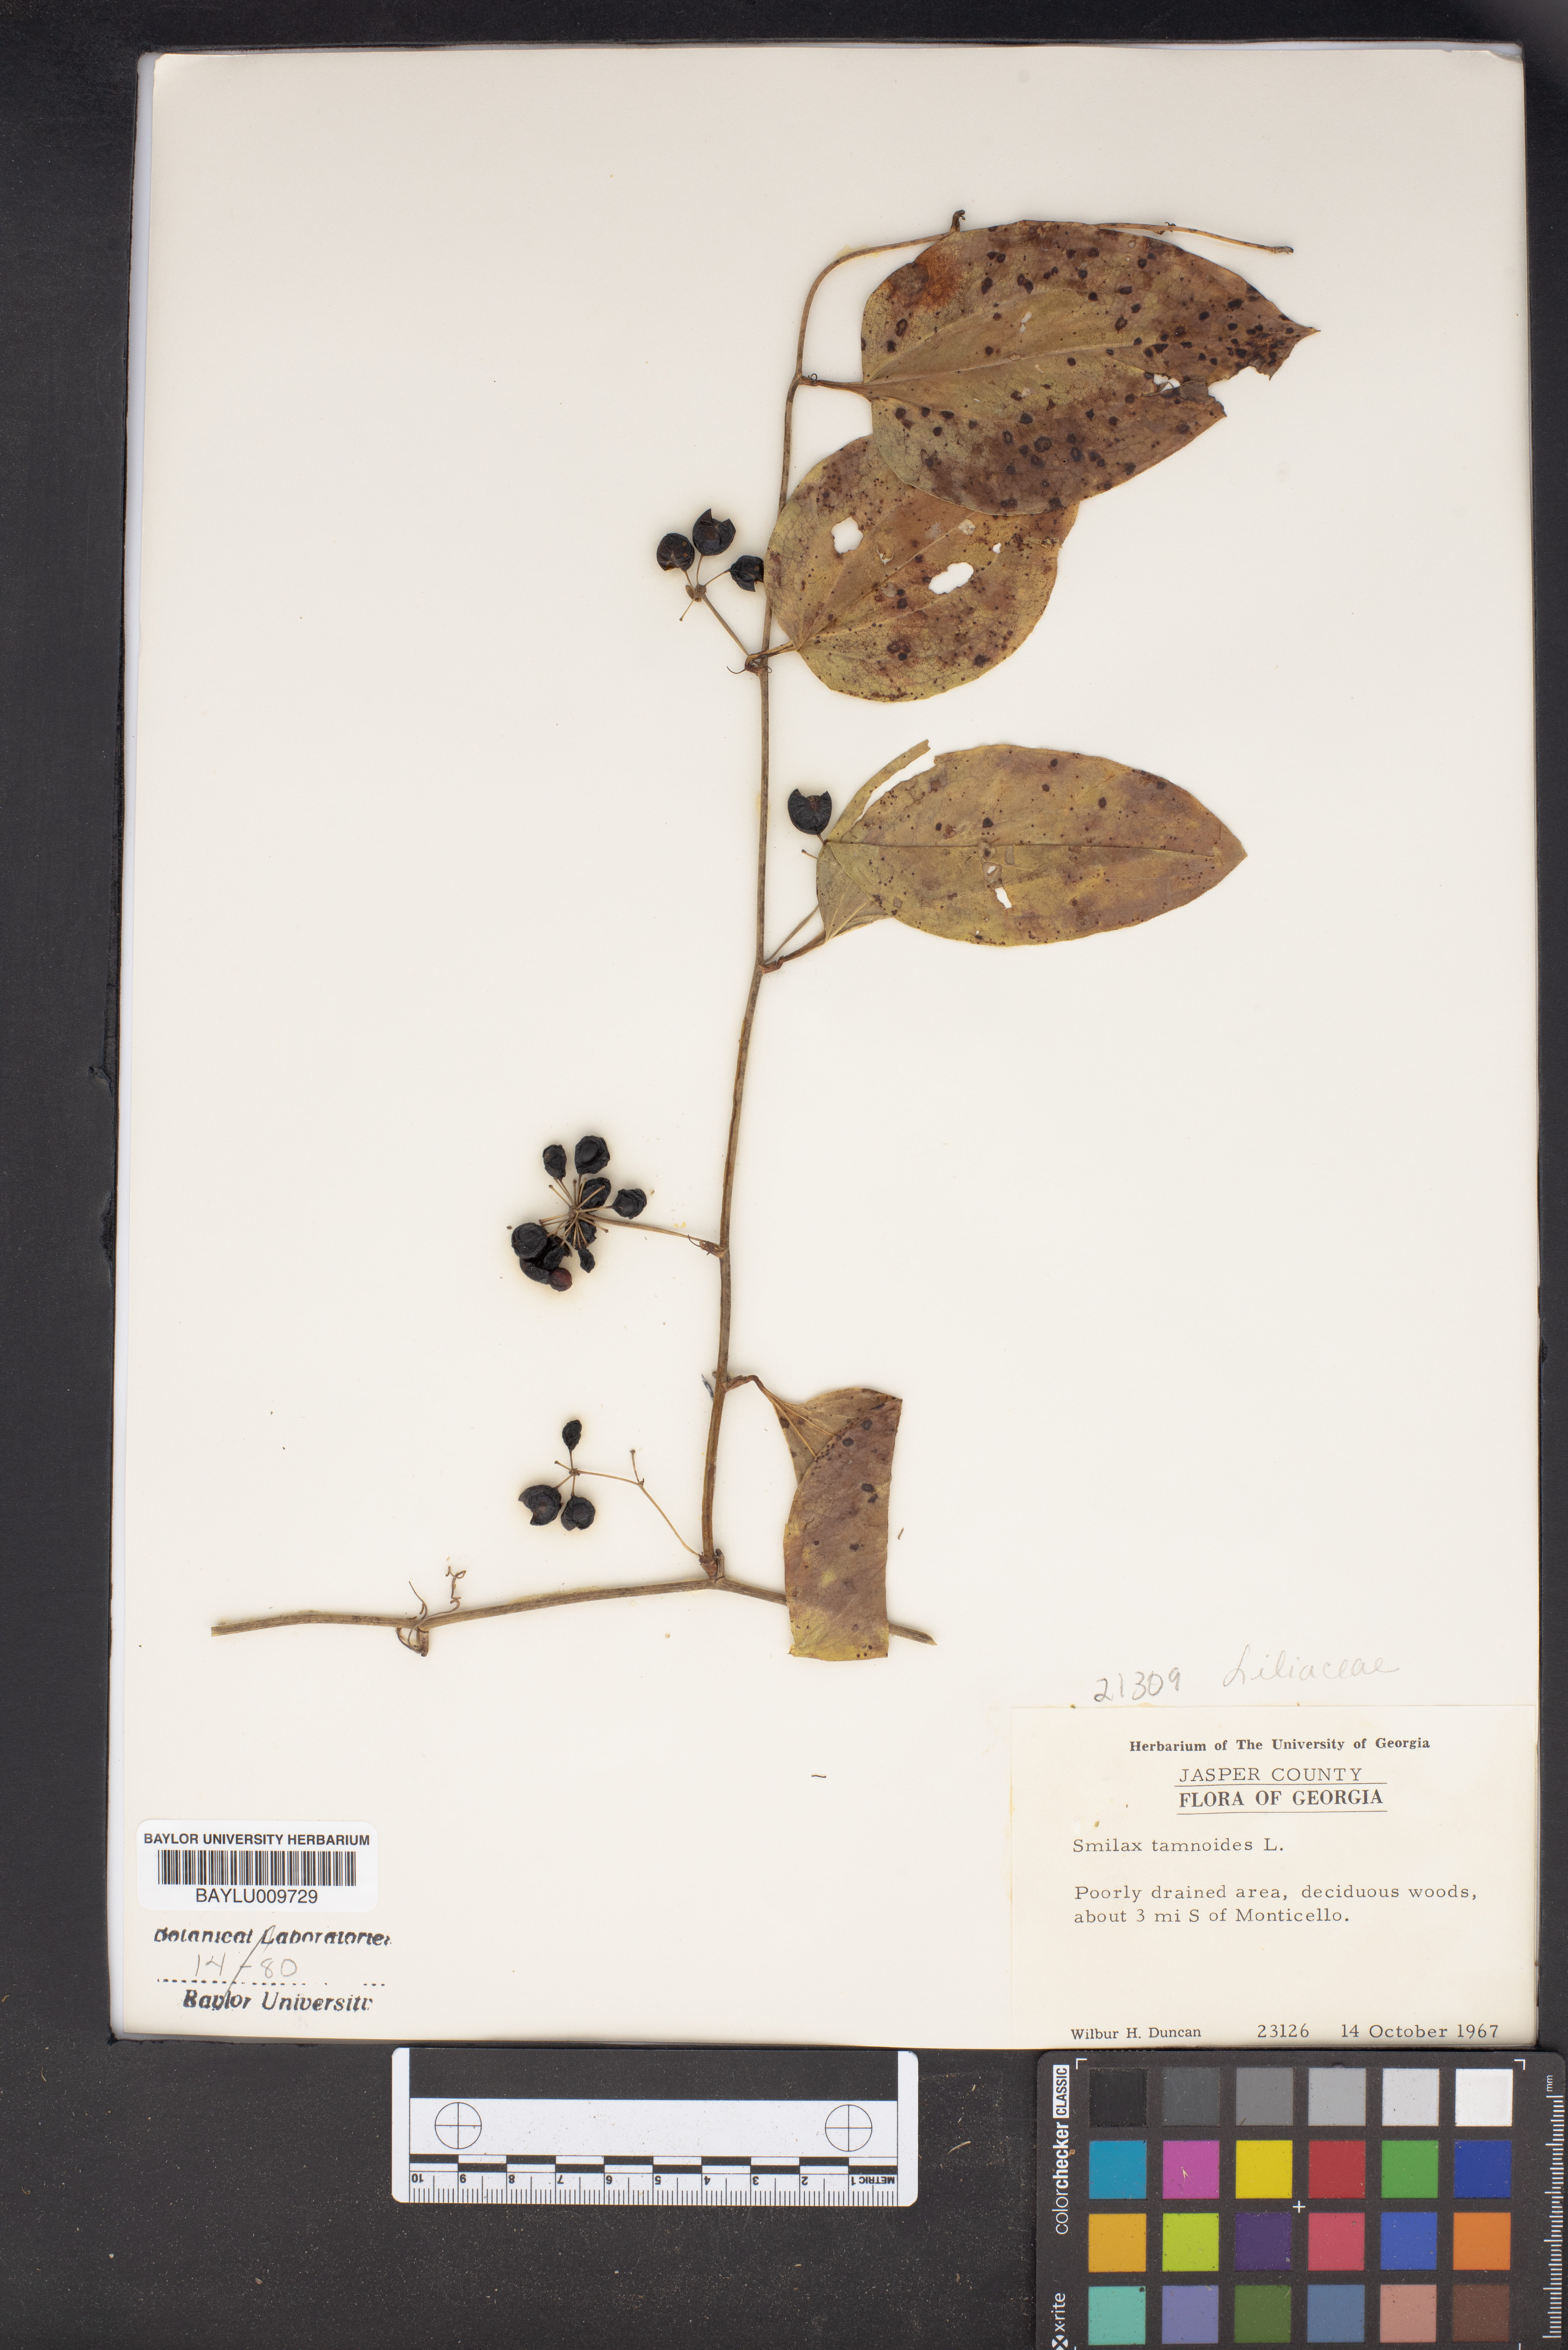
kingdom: Plantae
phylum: Tracheophyta
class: Liliopsida
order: Liliales
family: Smilacaceae
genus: Smilax
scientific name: Smilax tamnoides
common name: Hellfetter
